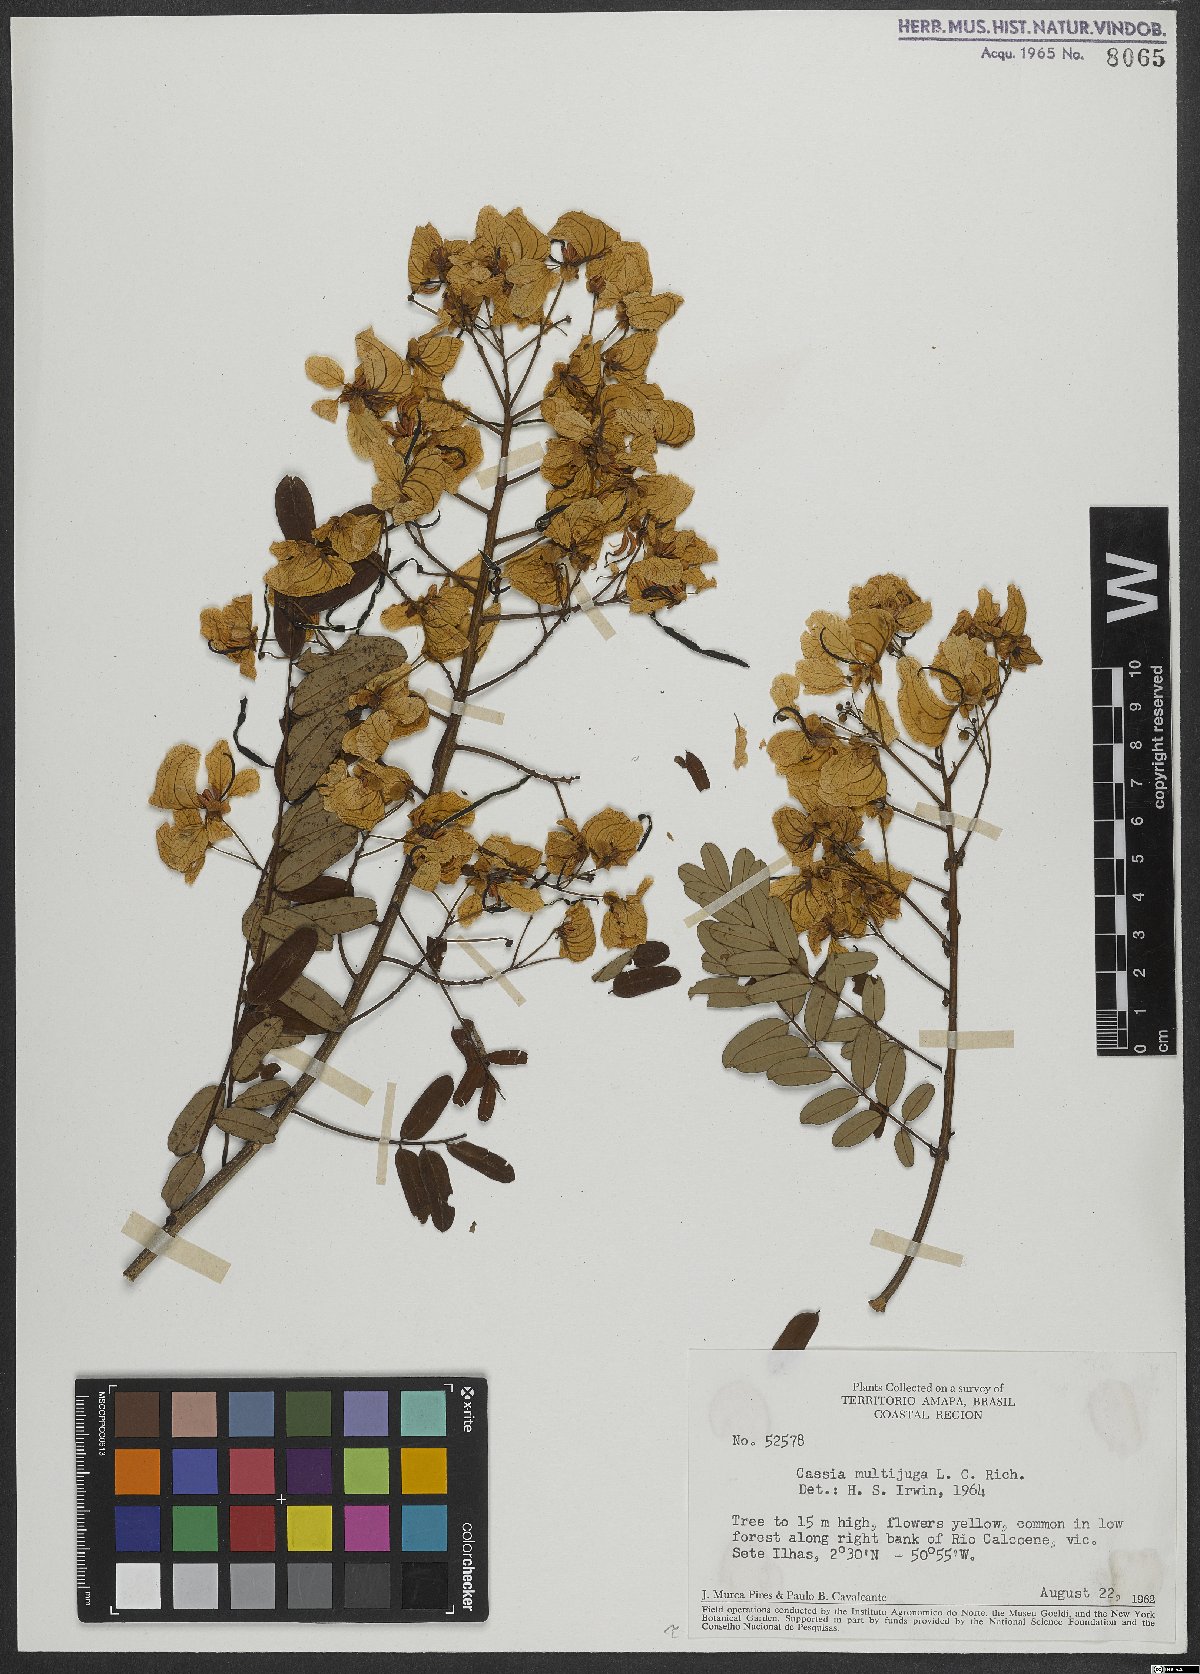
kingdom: Plantae
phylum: Tracheophyta
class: Magnoliopsida
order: Fabales
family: Fabaceae
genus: Senna
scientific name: Senna multijuga
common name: False sicklepod
